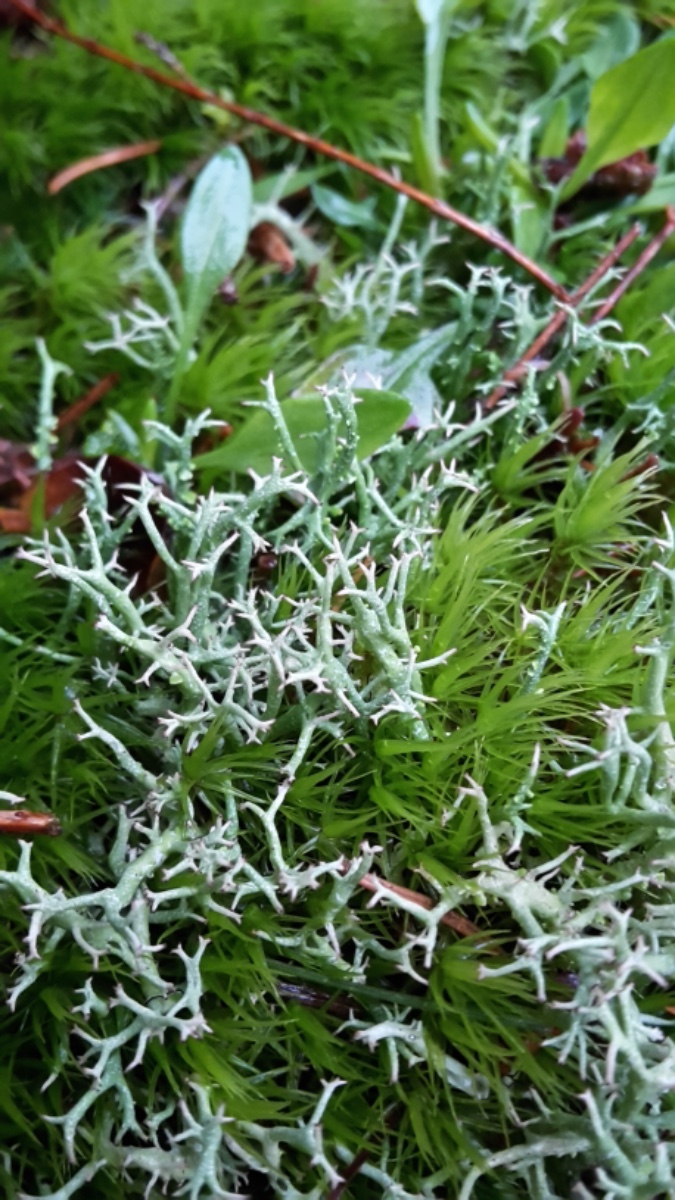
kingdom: Fungi
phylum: Ascomycota
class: Lecanoromycetes
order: Lecanorales
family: Cladoniaceae
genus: Cladonia
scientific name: Cladonia uncialis
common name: pigget bægerlav
